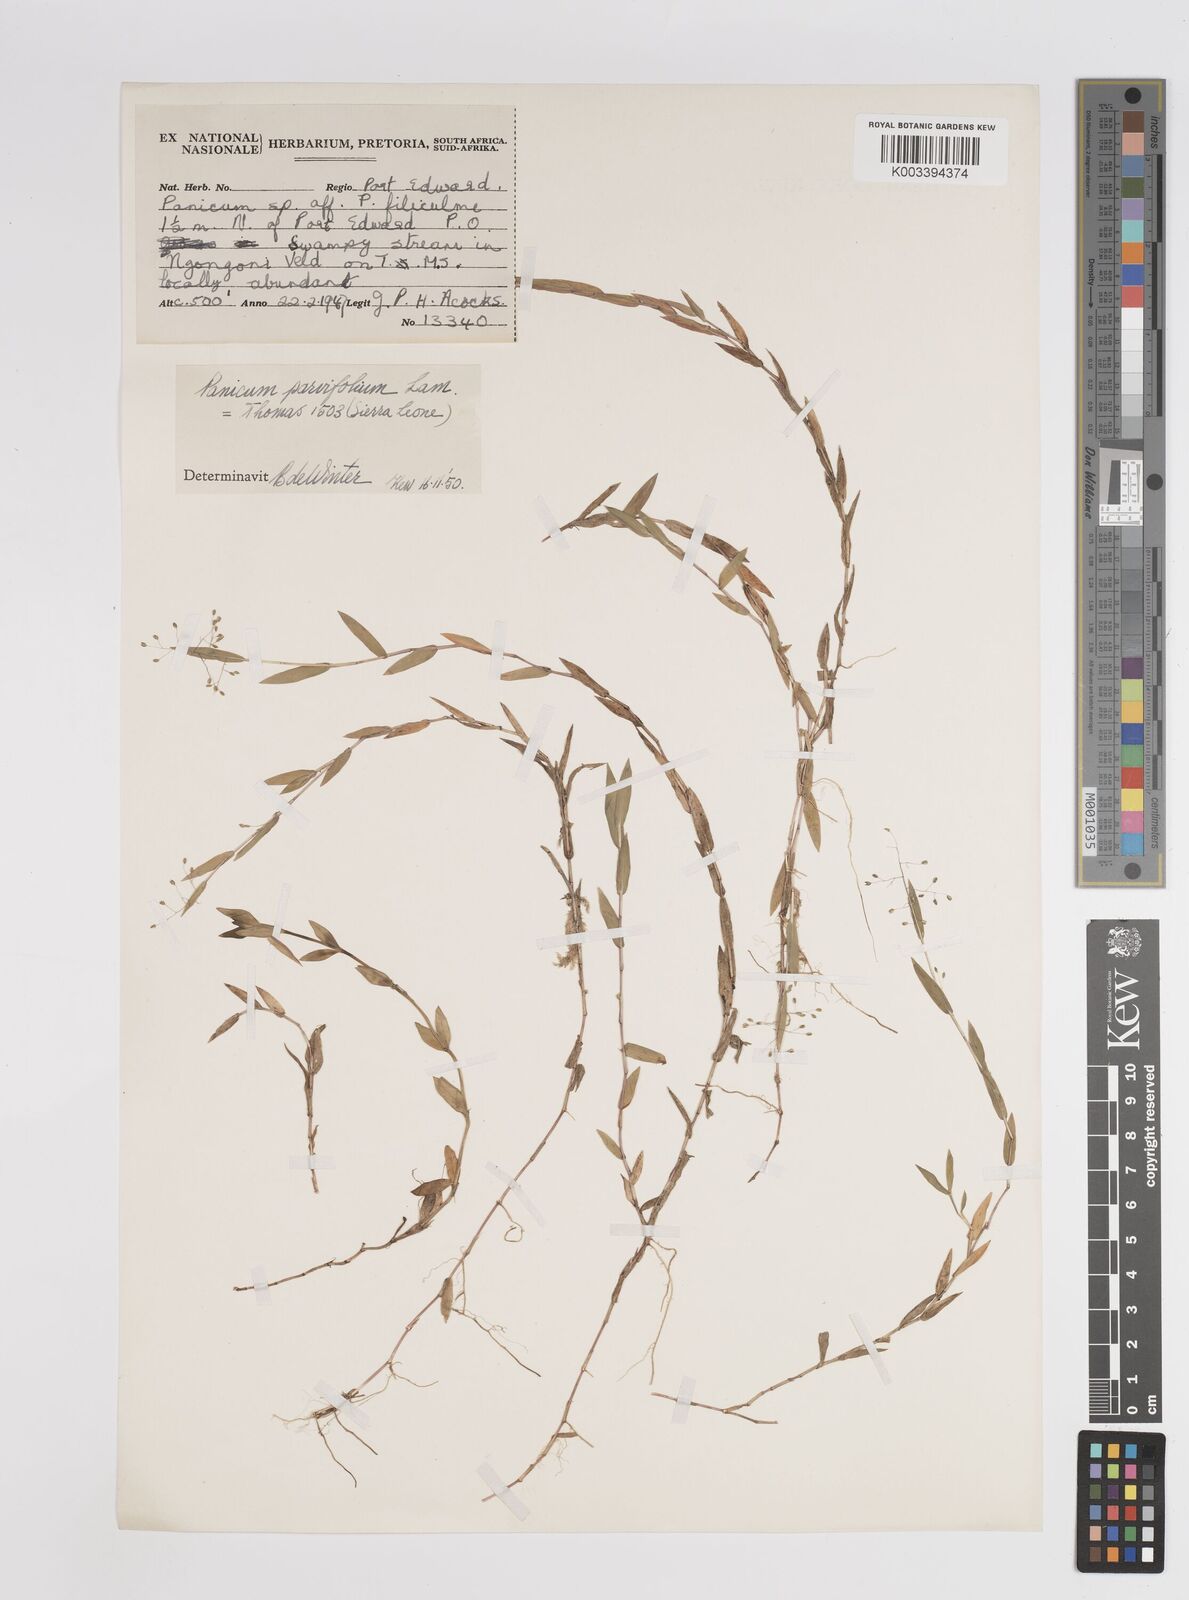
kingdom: Plantae
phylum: Tracheophyta
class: Liliopsida
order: Poales
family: Poaceae
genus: Digitaria
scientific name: Digitaria parviflora
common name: Small-flower finger grass
